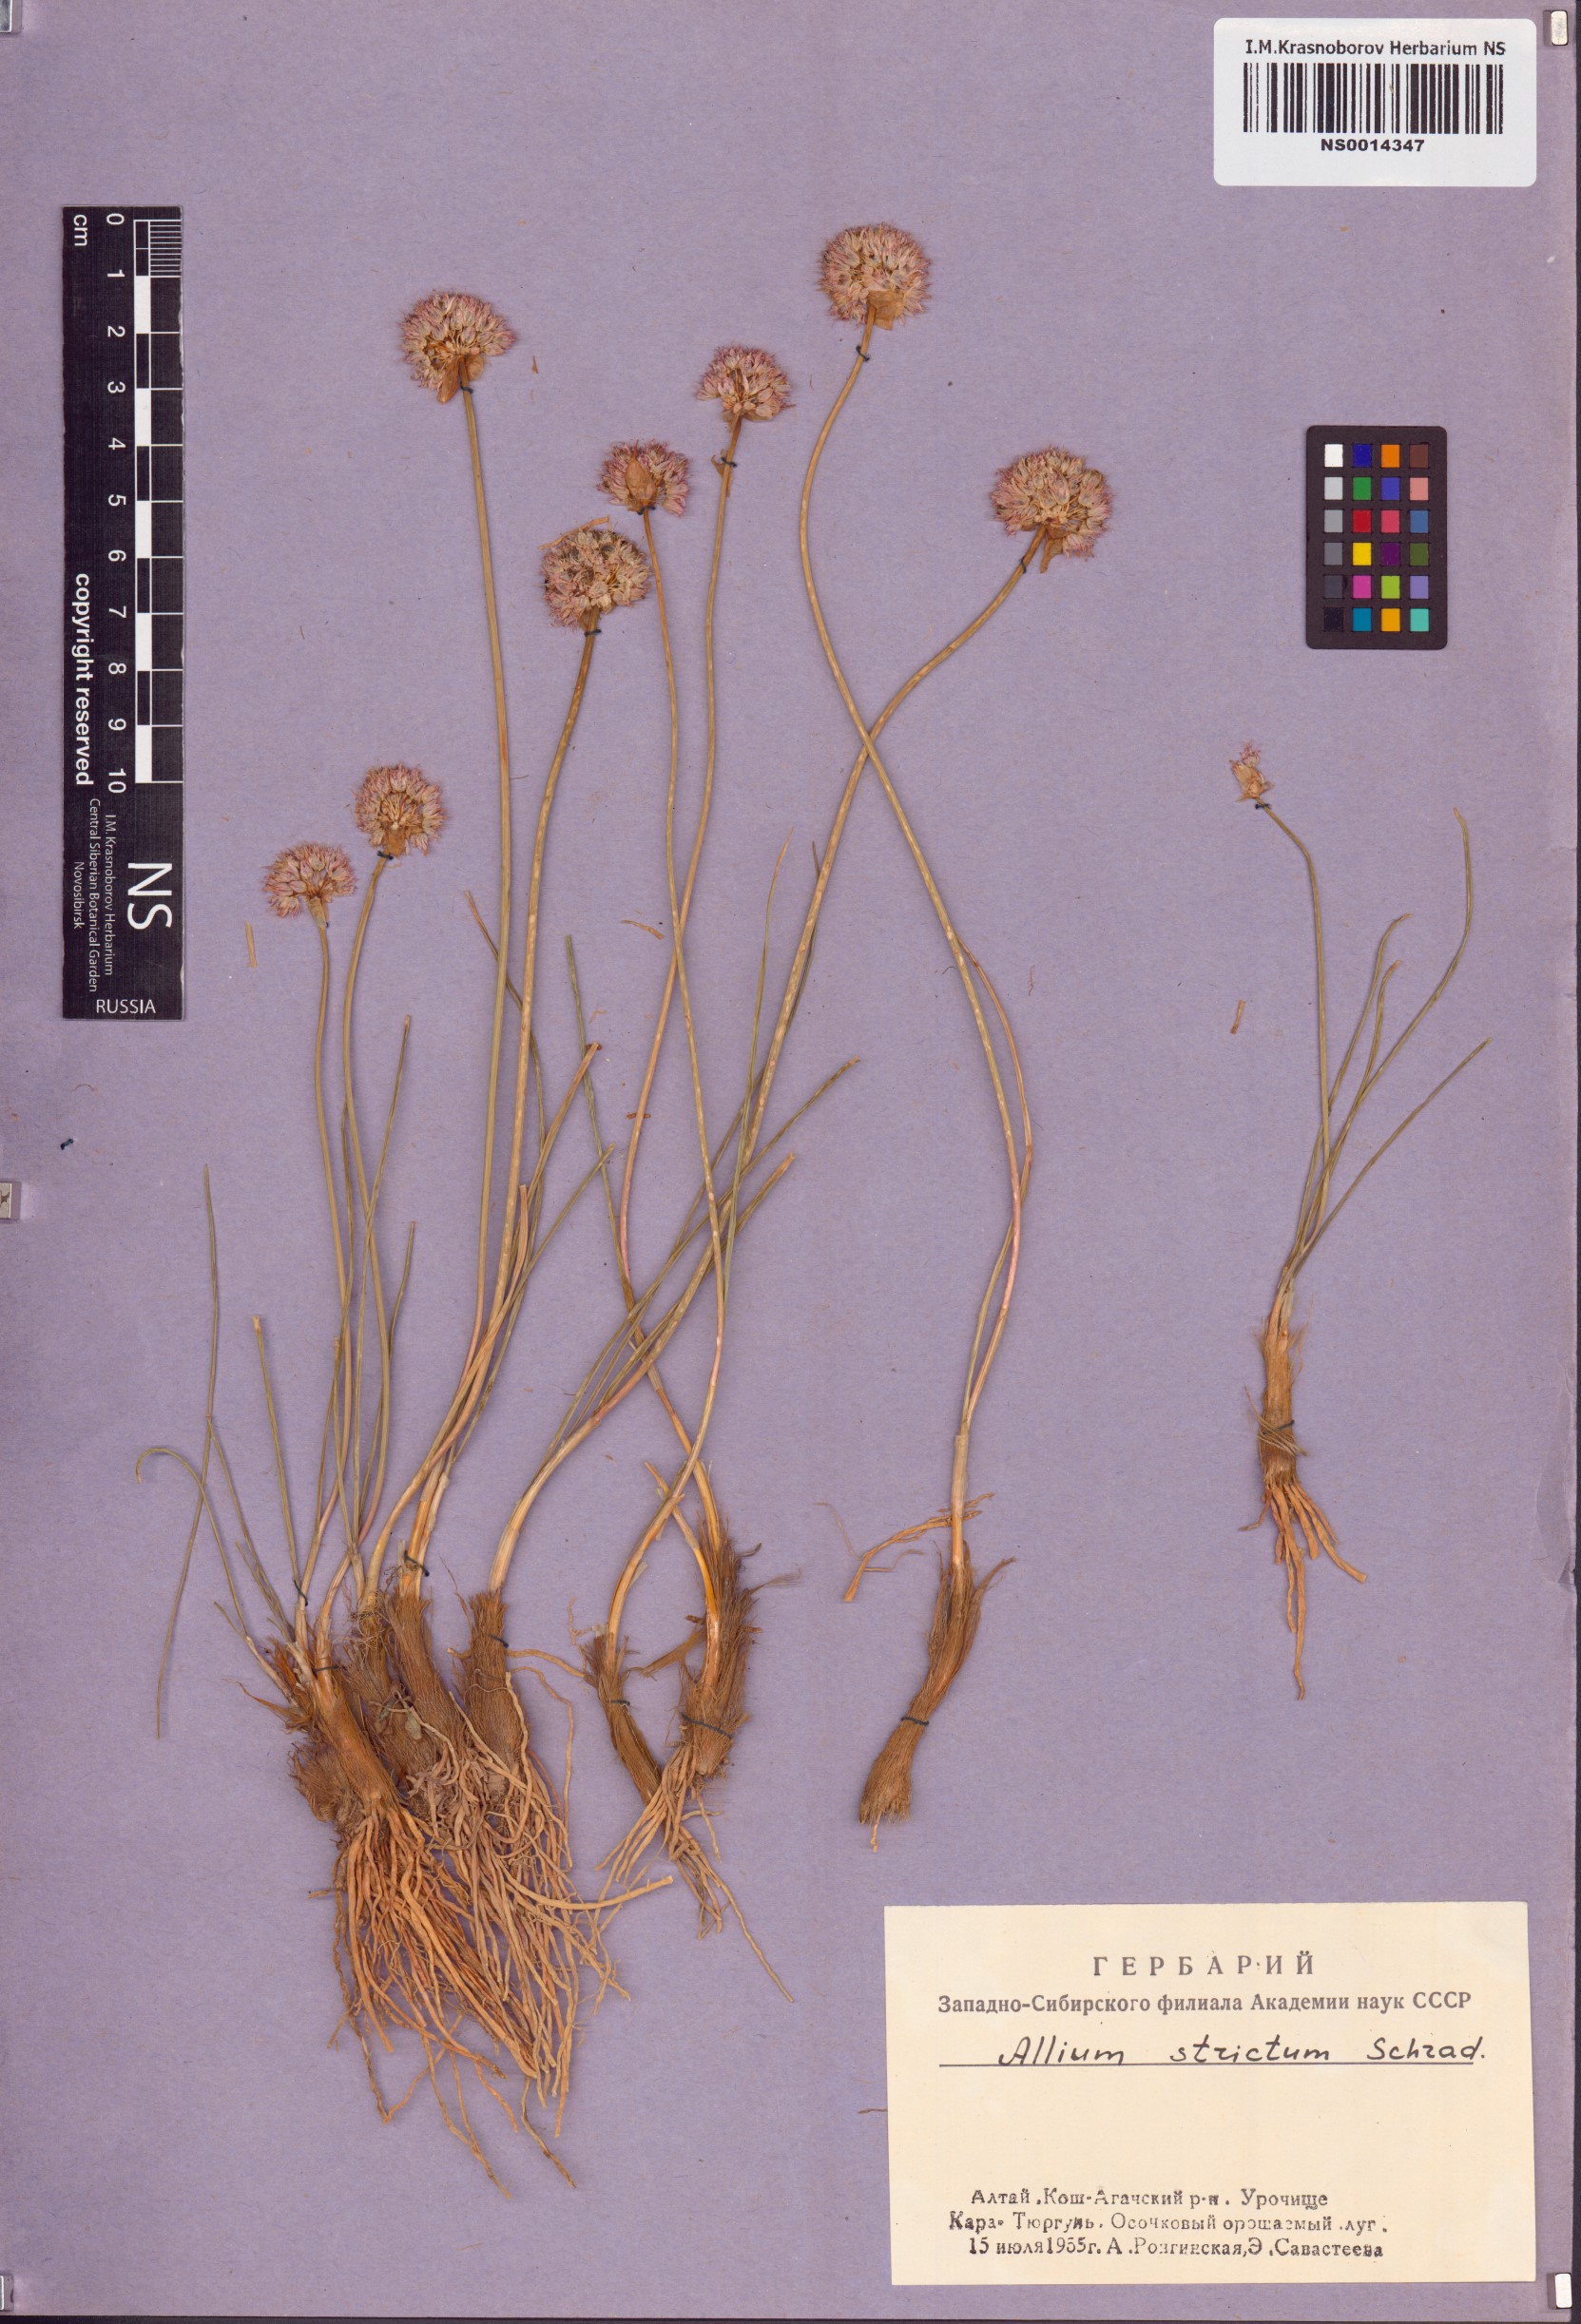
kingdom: Plantae
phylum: Tracheophyta
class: Liliopsida
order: Asparagales
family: Amaryllidaceae
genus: Allium
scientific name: Allium strictum
